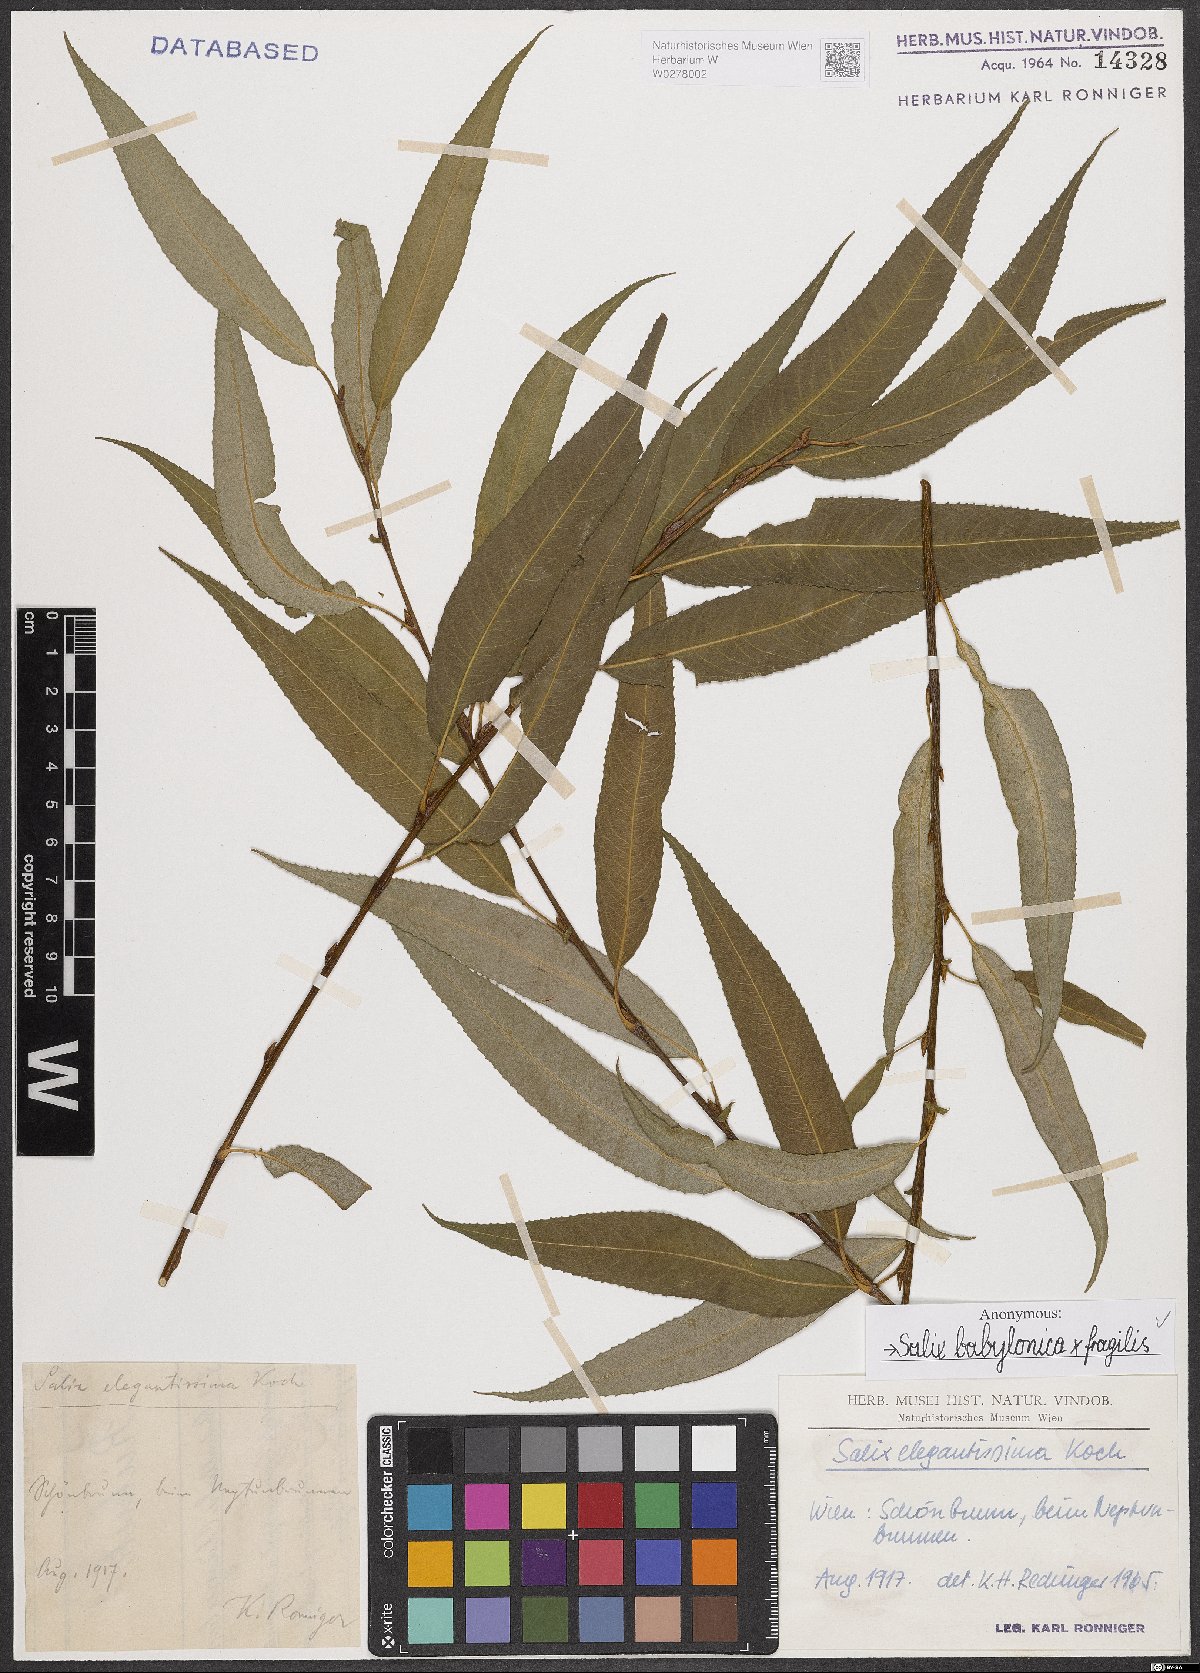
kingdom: Plantae
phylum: Tracheophyta
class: Magnoliopsida
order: Malpighiales
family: Salicaceae
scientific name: Salicaceae
